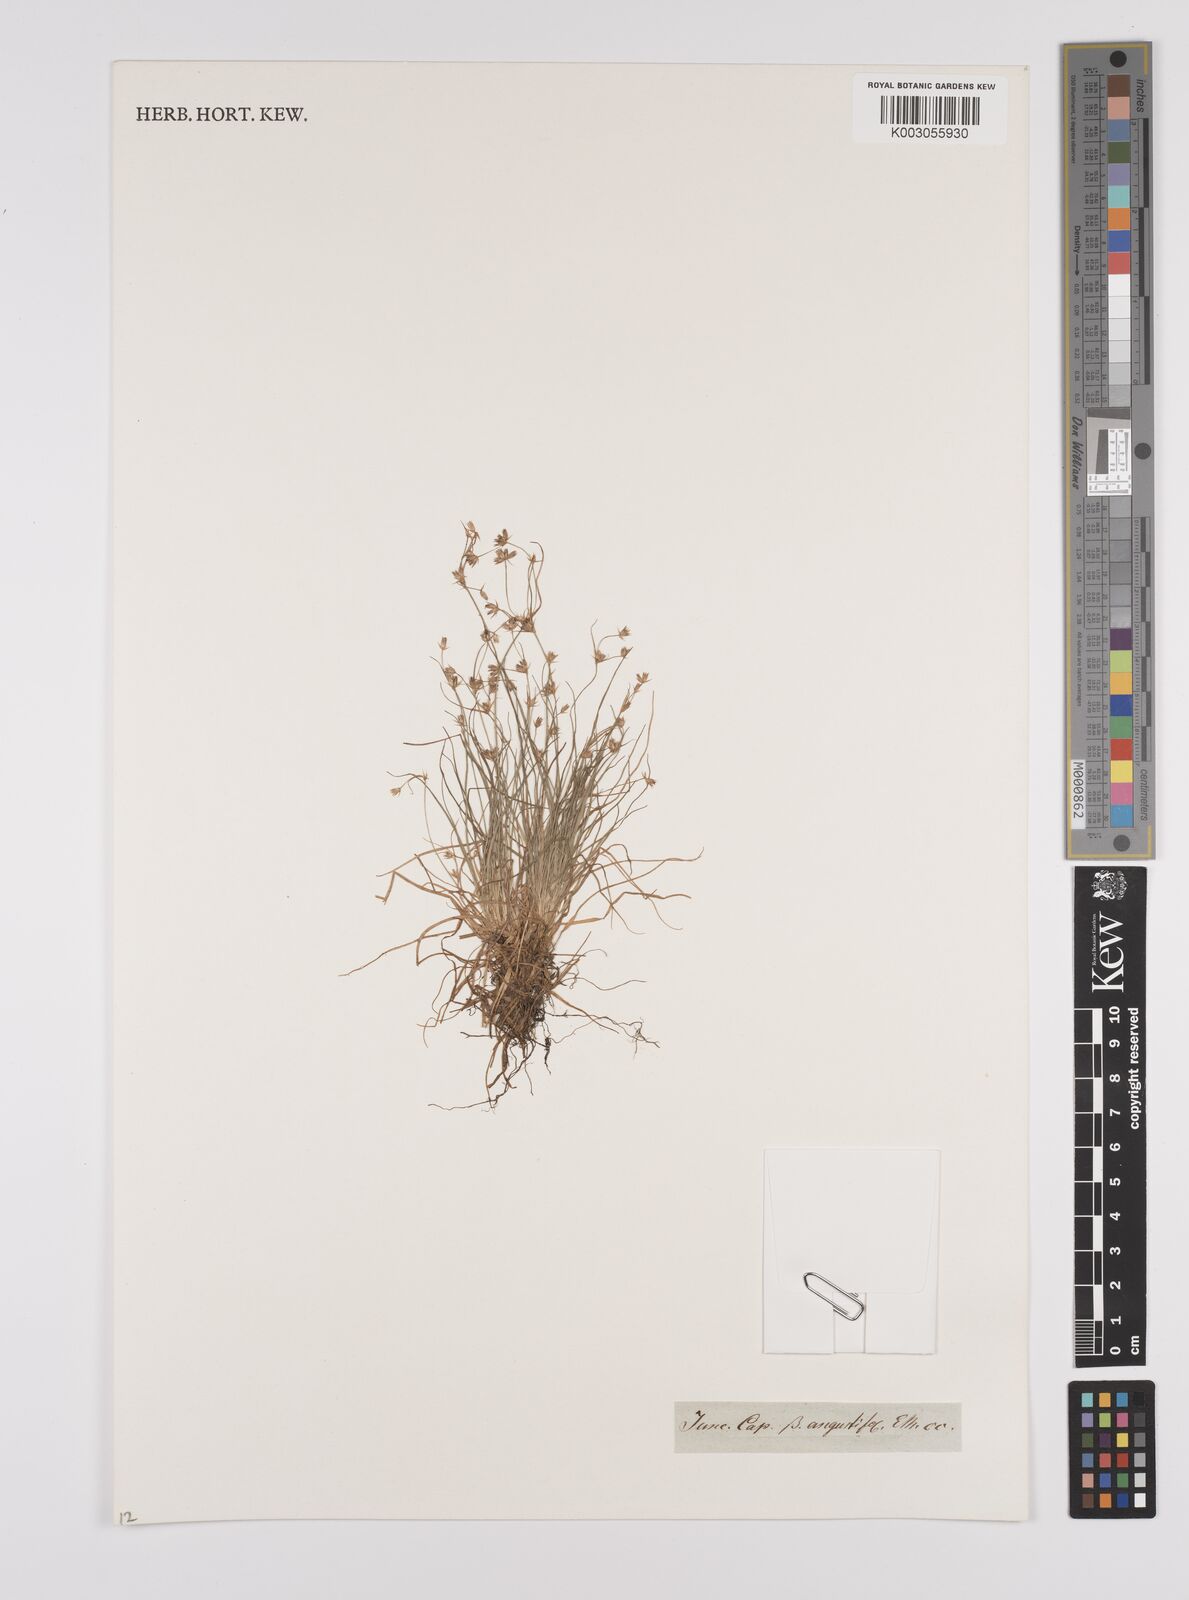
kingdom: Plantae
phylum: Tracheophyta
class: Liliopsida
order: Poales
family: Juncaceae
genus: Juncus
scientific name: Juncus capensis
